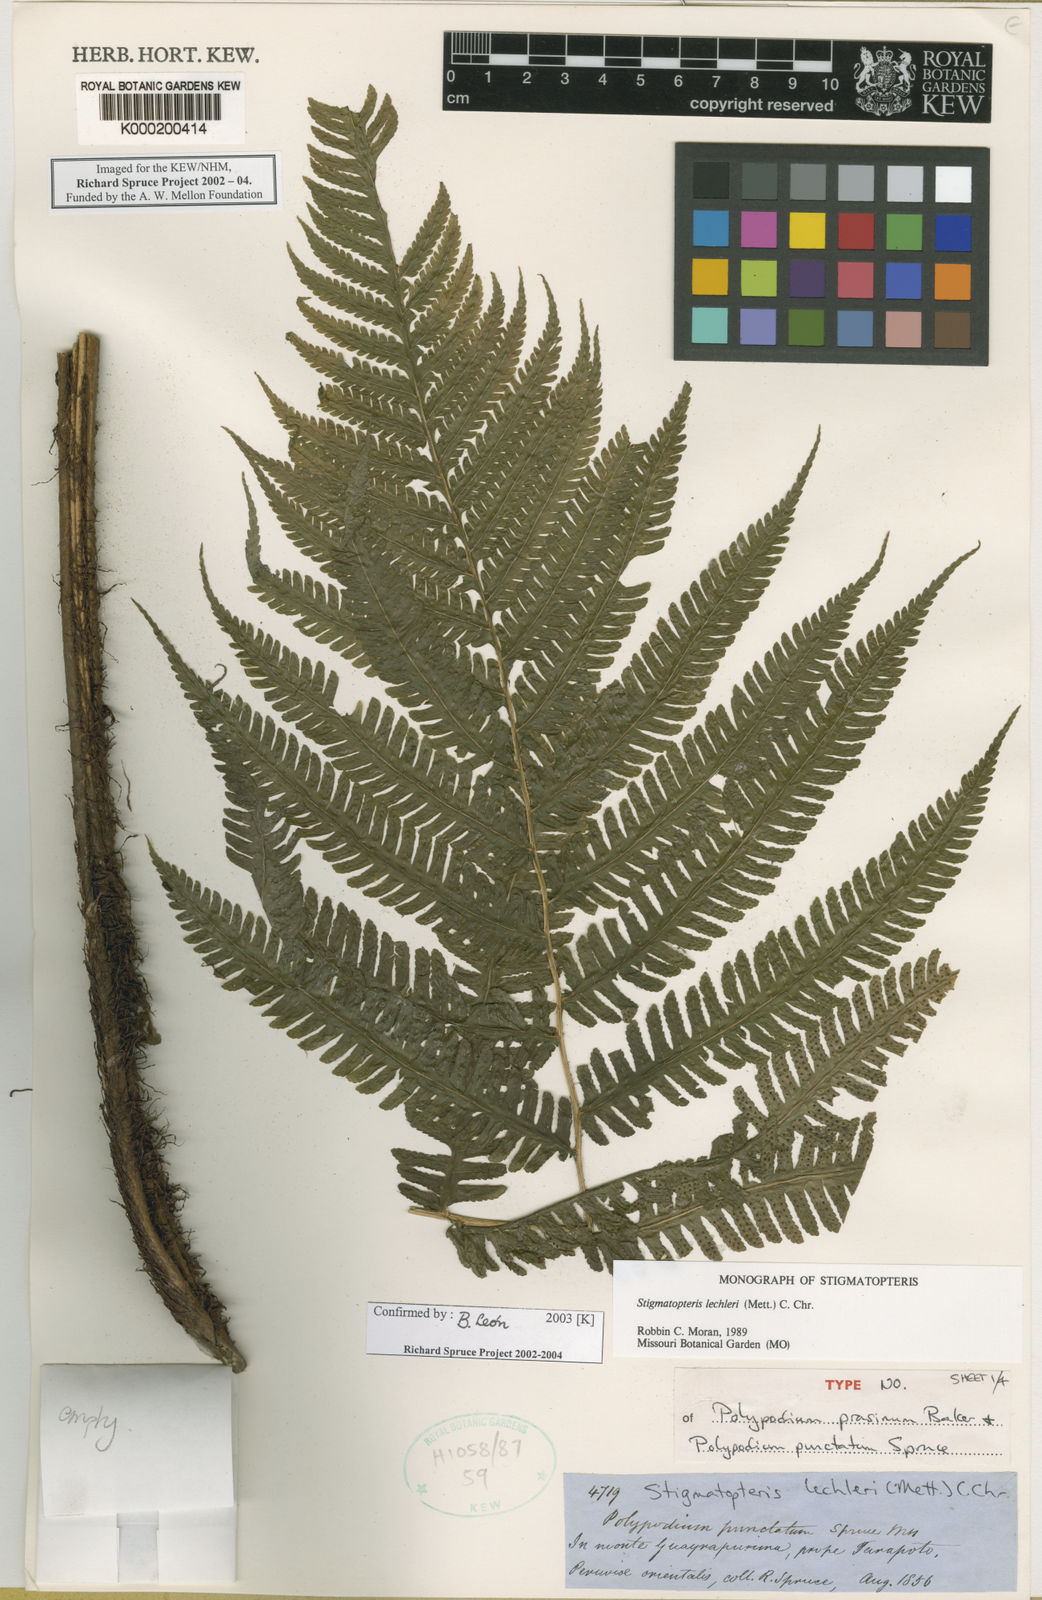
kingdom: Plantae
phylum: Tracheophyta
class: Polypodiopsida
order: Polypodiales
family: Dryopteridaceae
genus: Stigmatopteris
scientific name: Stigmatopteris lechleri
